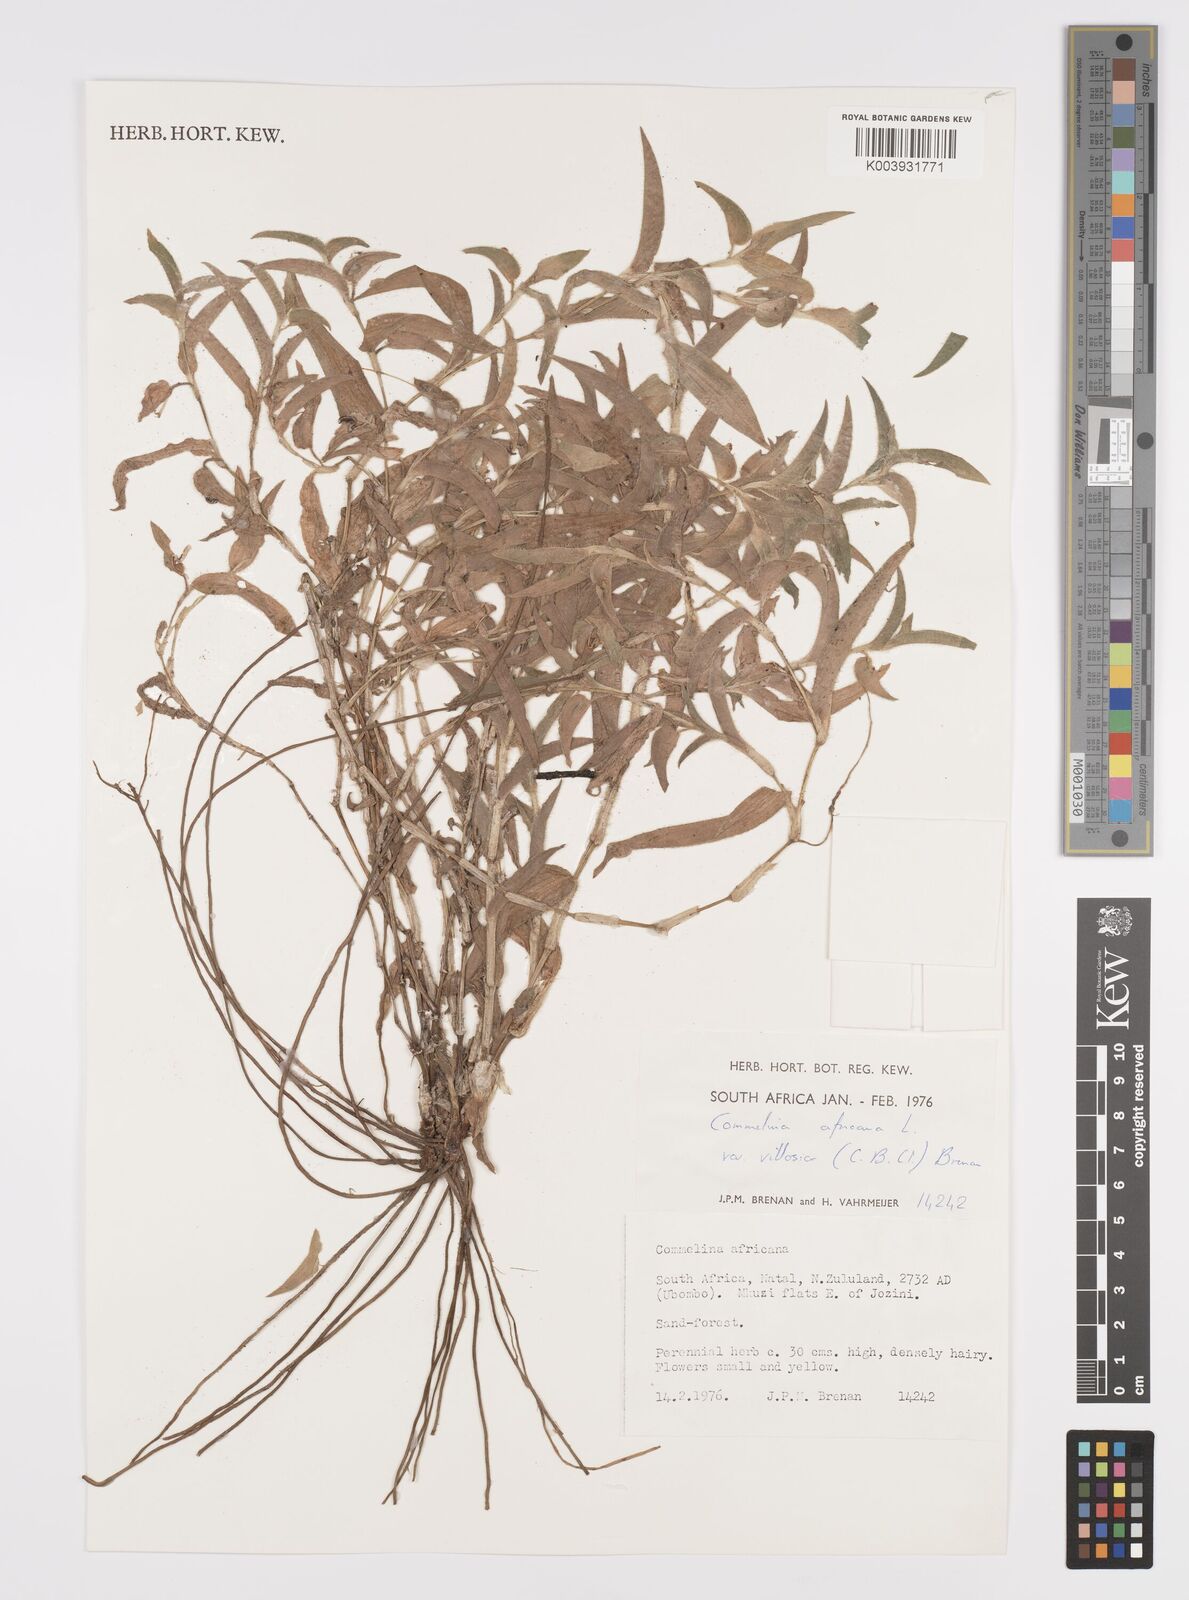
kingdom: Plantae
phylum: Tracheophyta
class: Liliopsida
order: Commelinales
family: Commelinaceae
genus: Commelina
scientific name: Commelina africana
